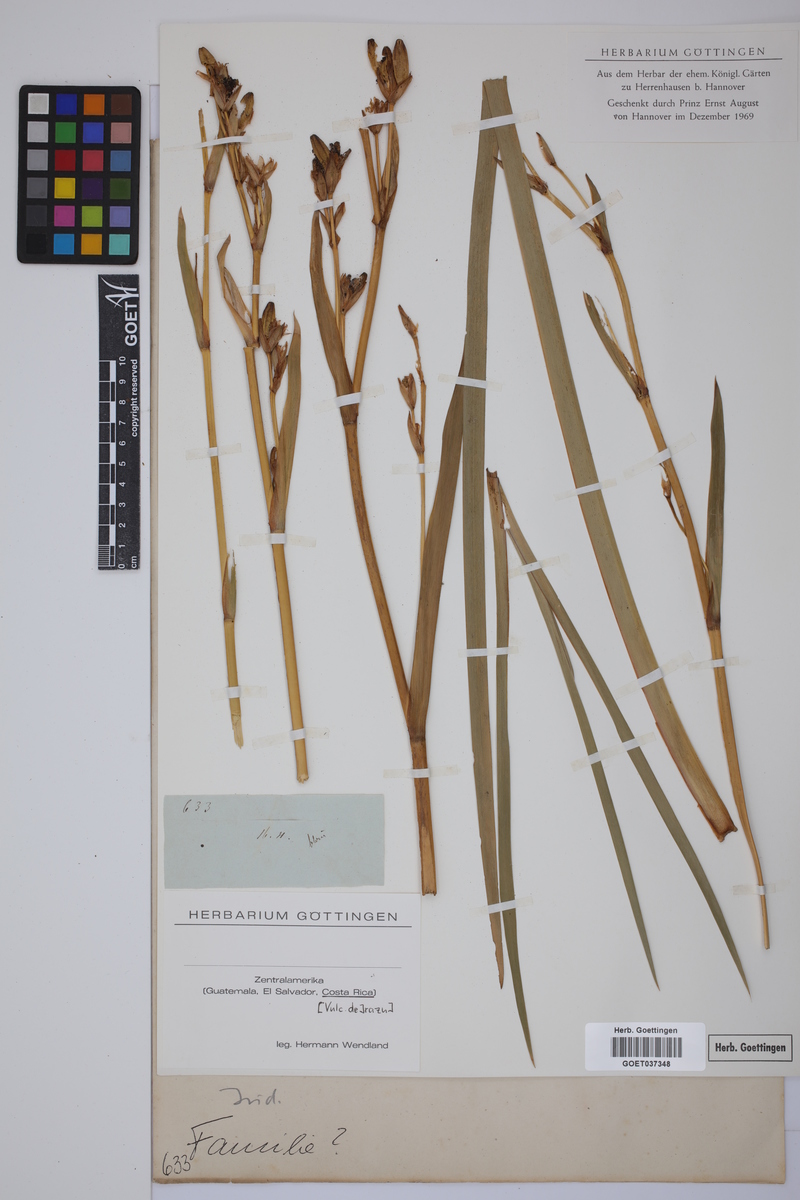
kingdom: Plantae
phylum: Tracheophyta
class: Liliopsida
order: Asparagales
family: Iridaceae
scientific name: Iridaceae
